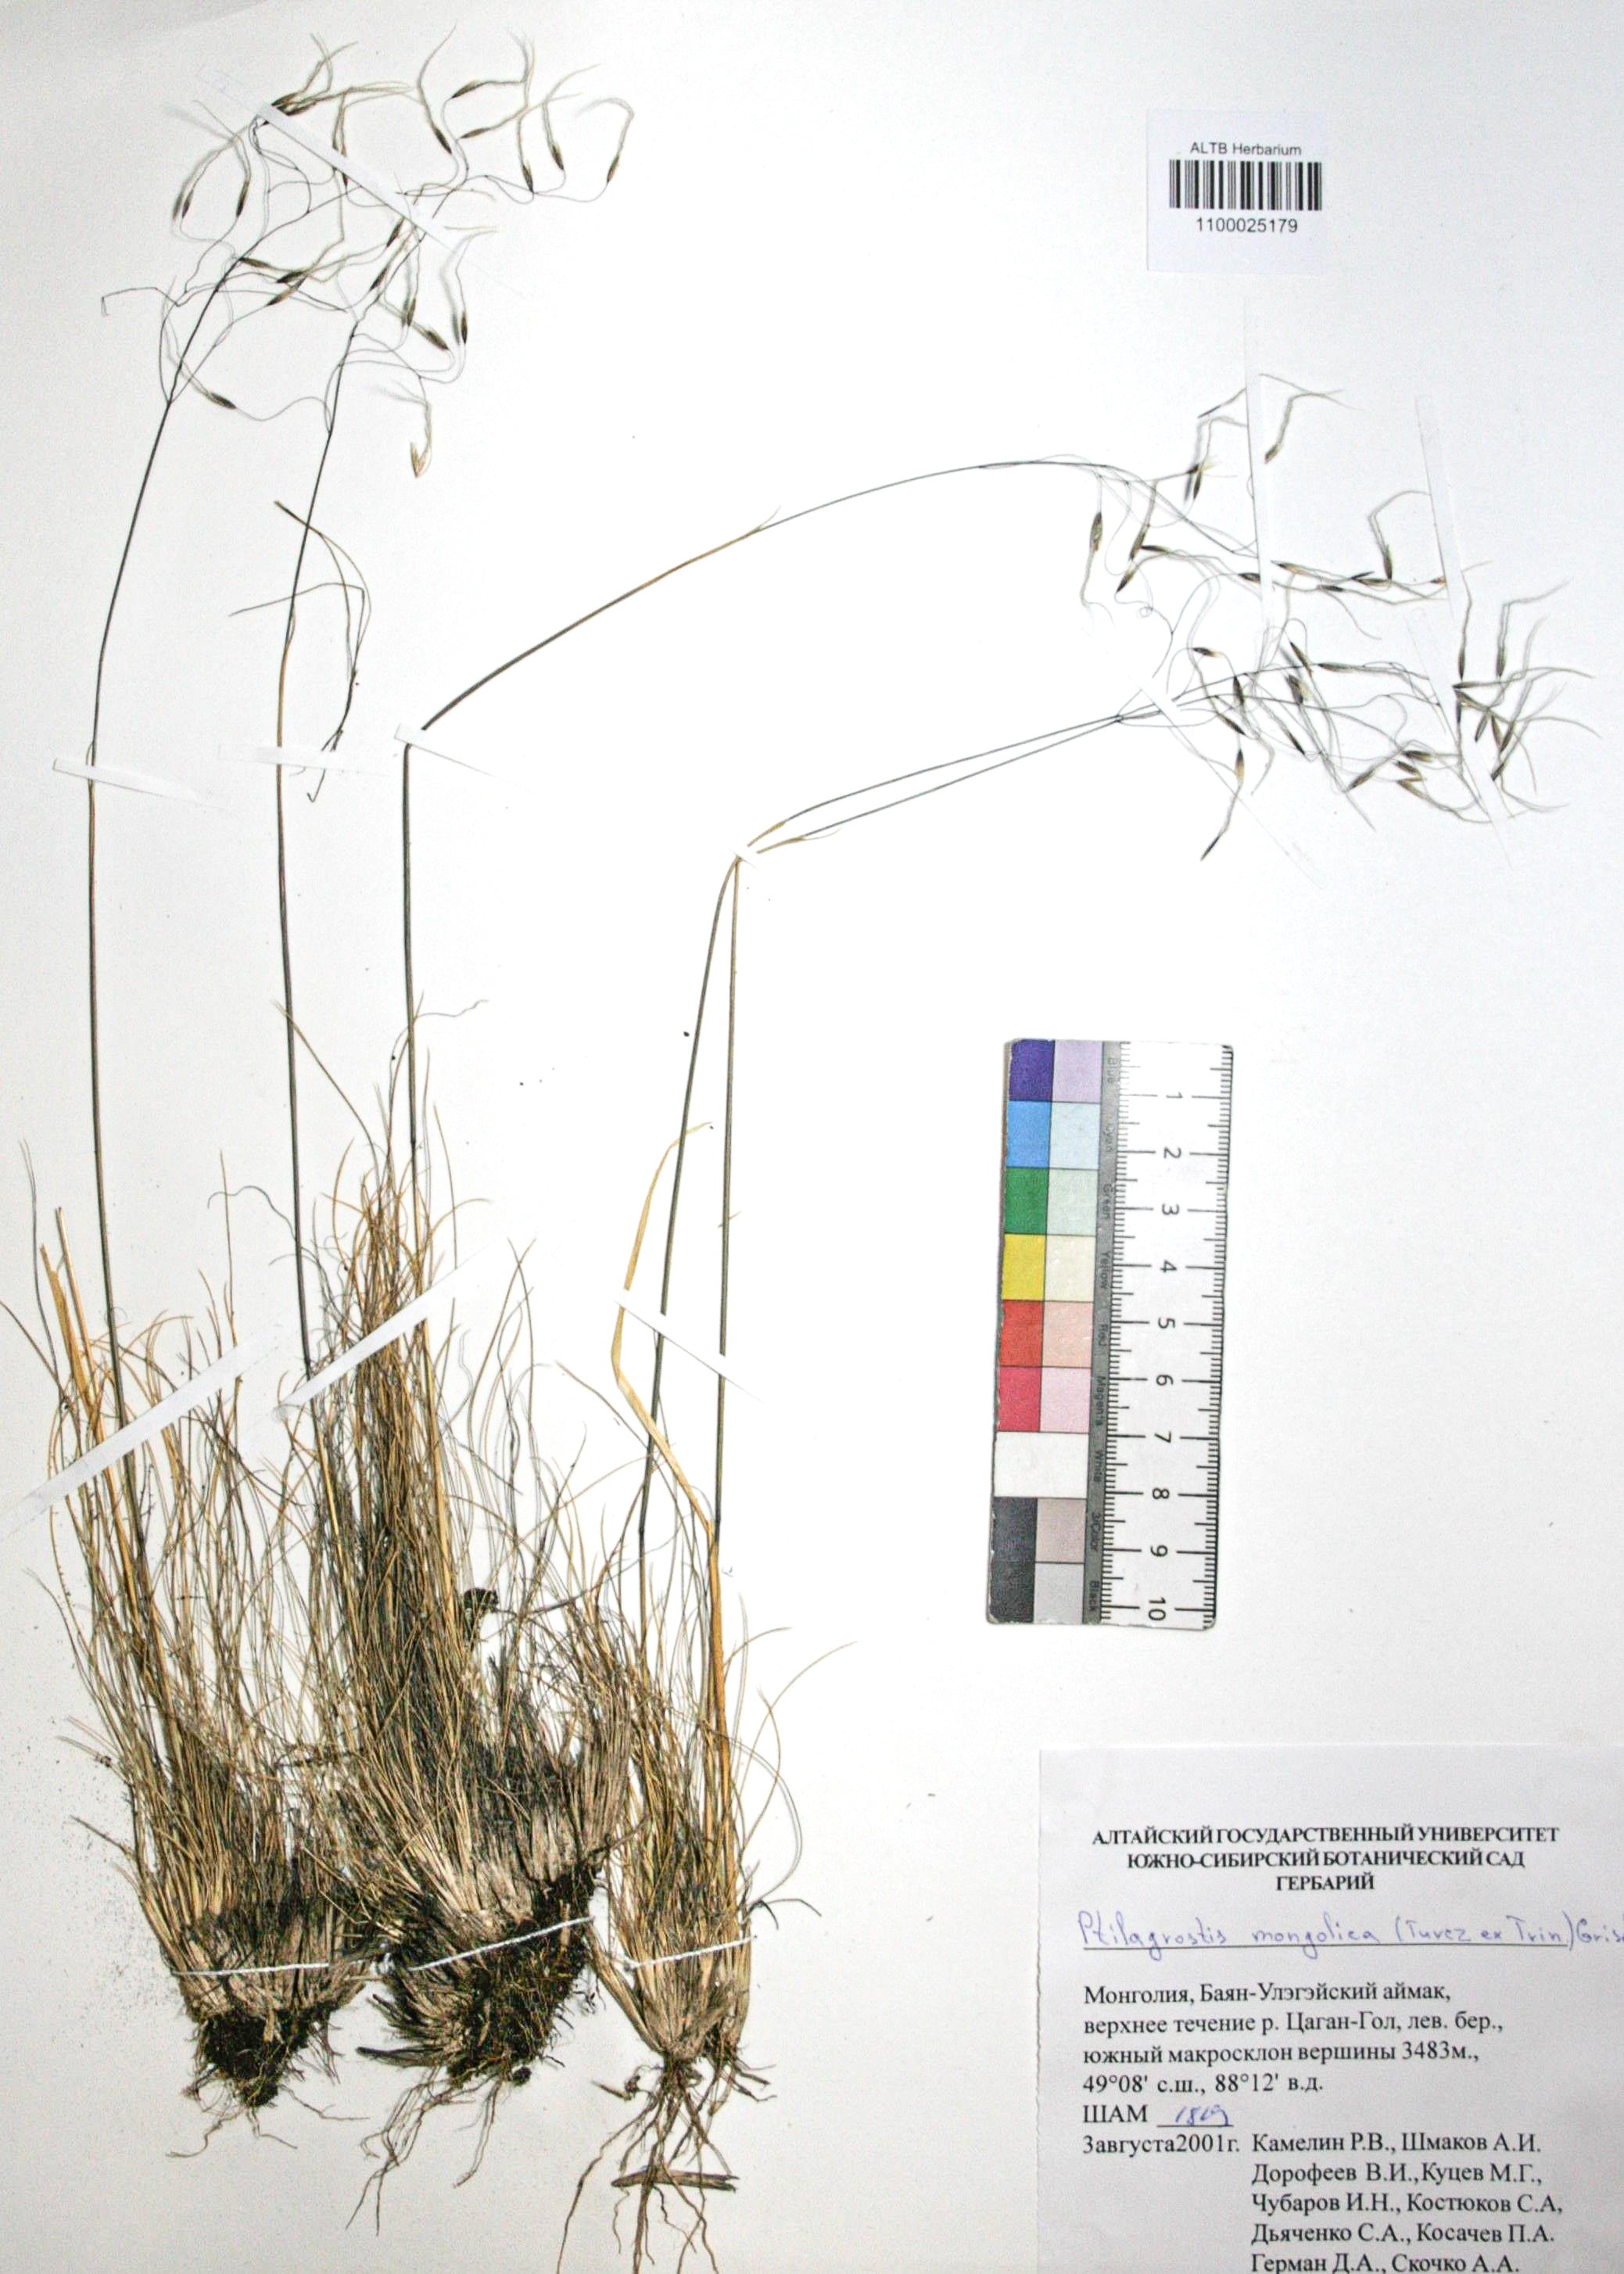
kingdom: Plantae
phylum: Tracheophyta
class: Liliopsida
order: Poales
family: Poaceae
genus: Ptilagrostis
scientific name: Ptilagrostis mongholica
